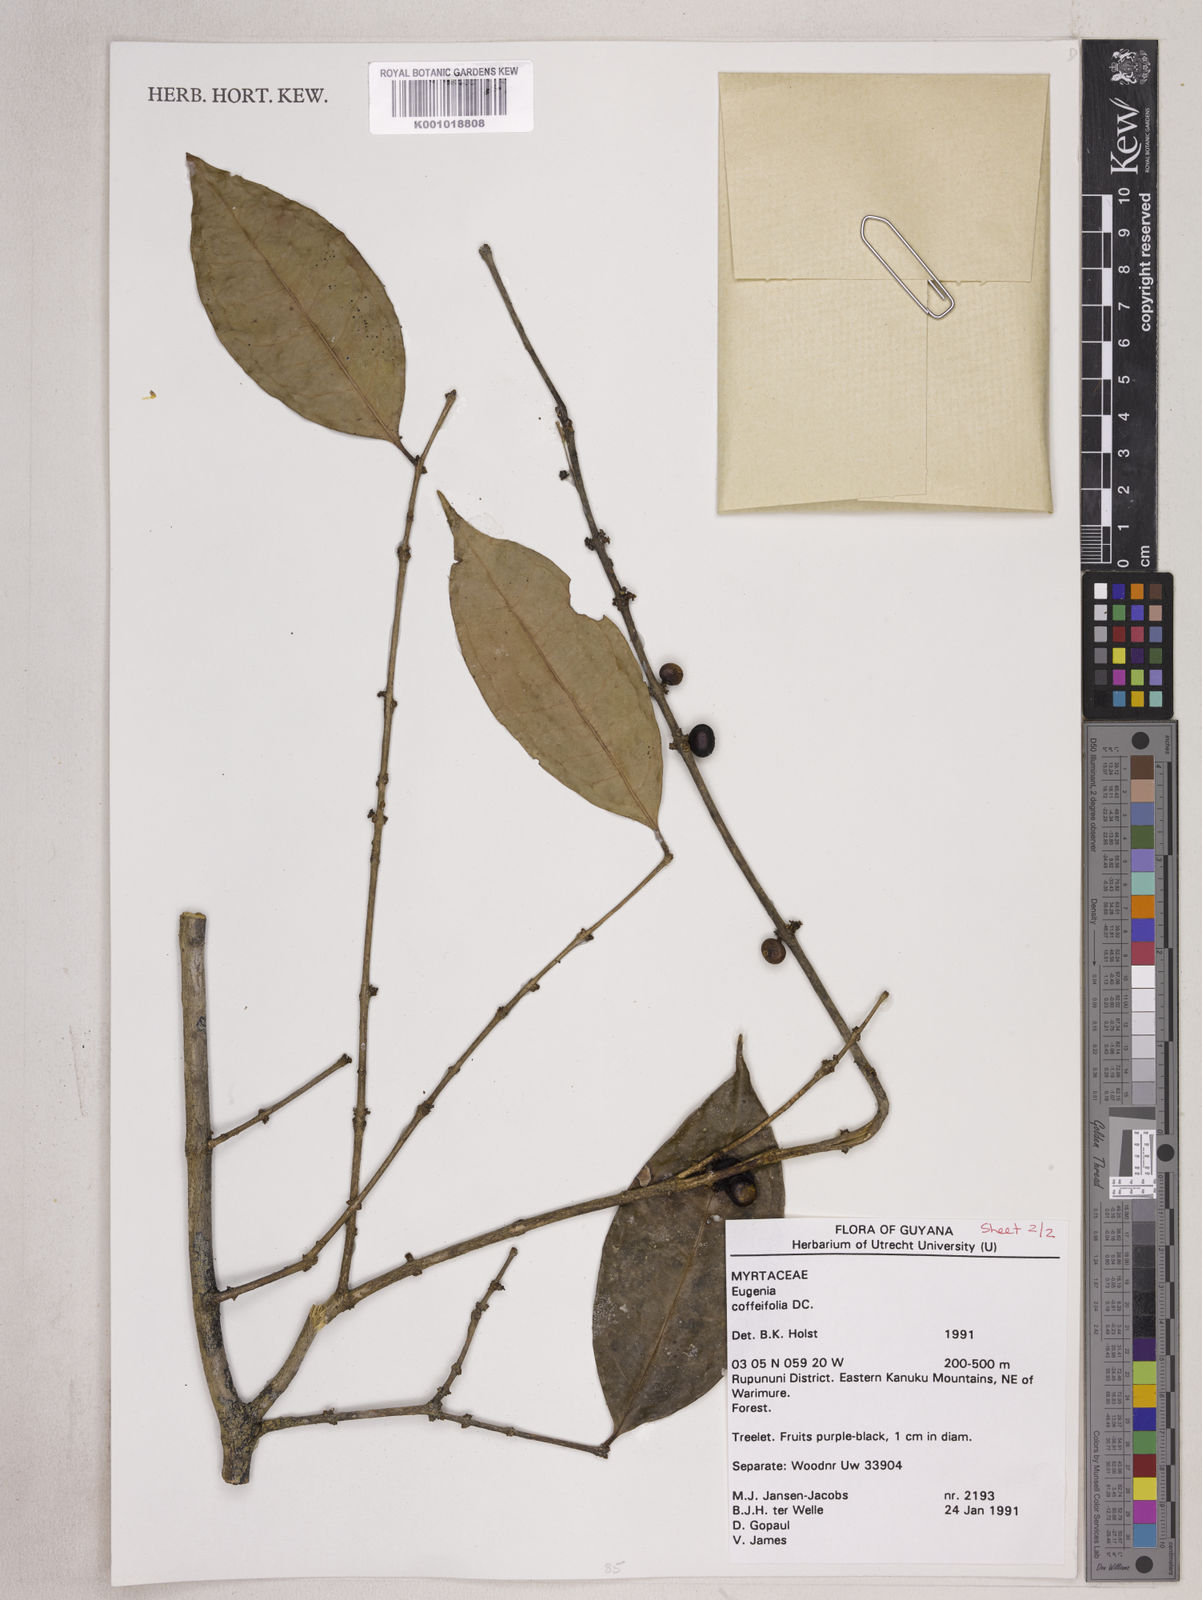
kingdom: Plantae
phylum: Tracheophyta
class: Magnoliopsida
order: Myrtales
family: Myrtaceae
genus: Eugenia
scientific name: Eugenia coffeifolia
